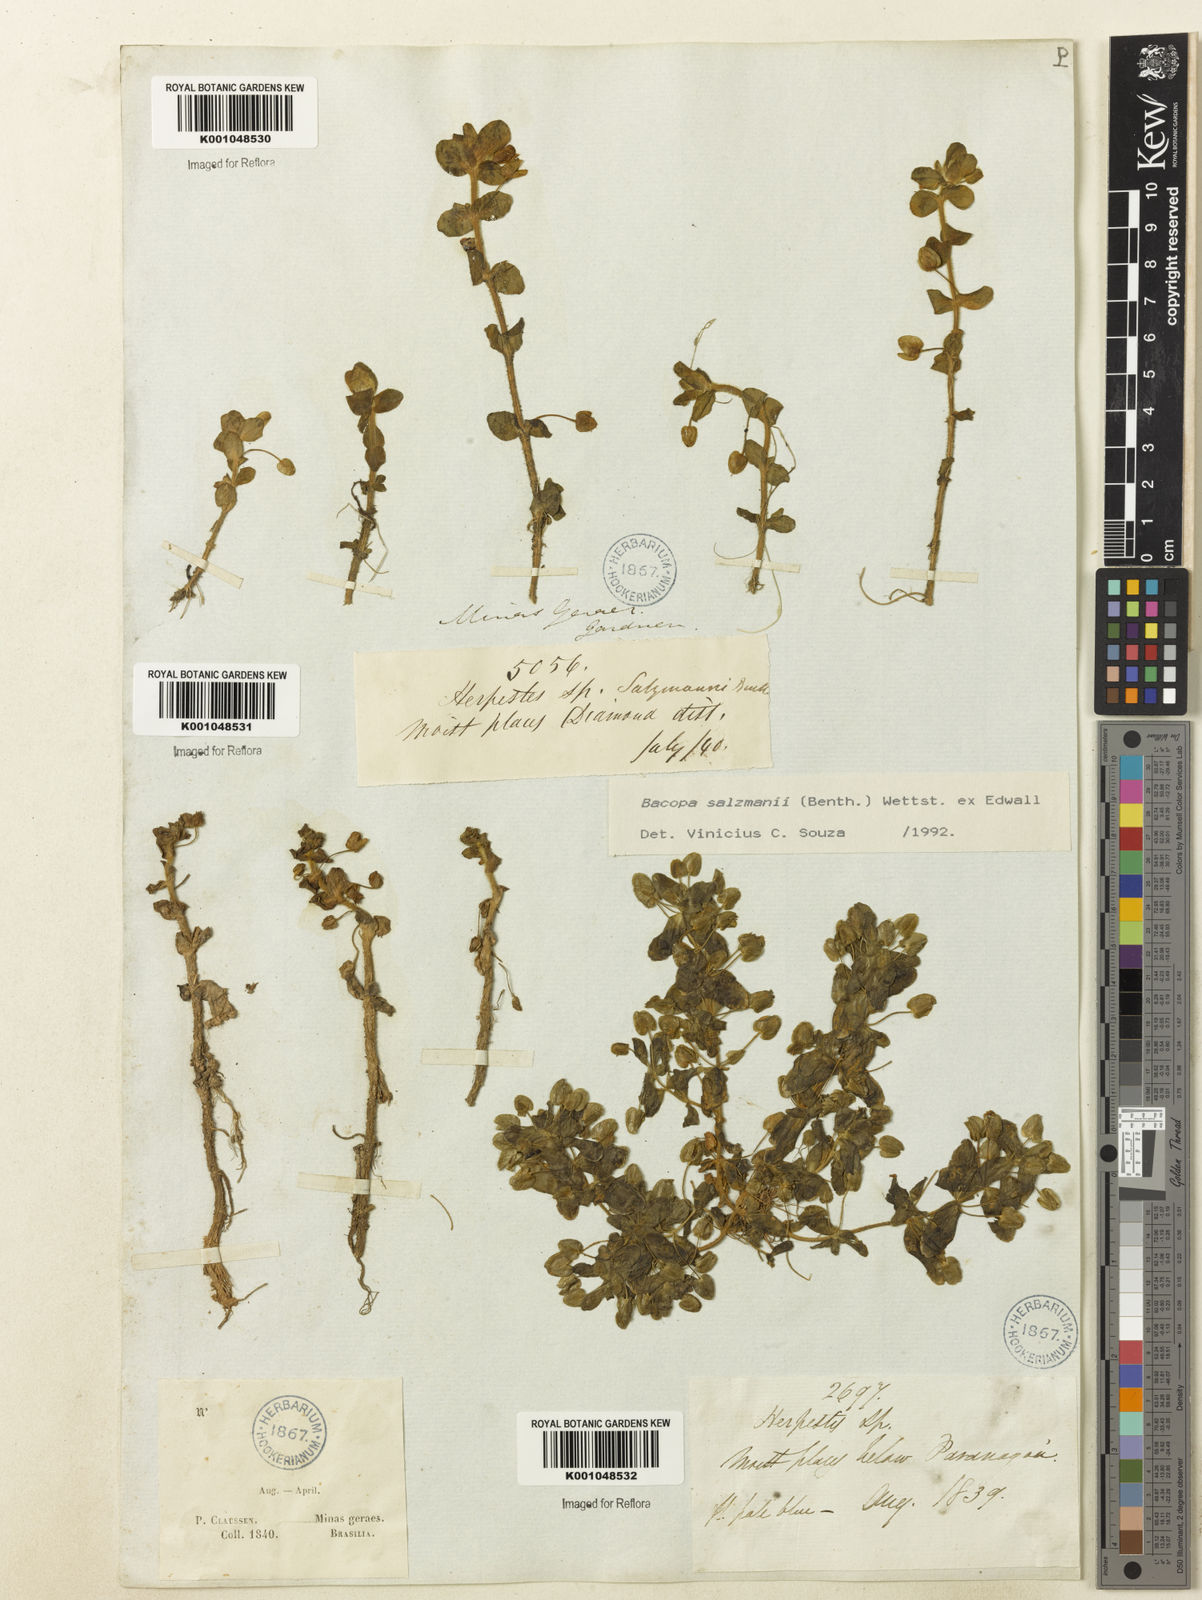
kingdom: Plantae
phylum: Tracheophyta
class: Magnoliopsida
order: Lamiales
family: Plantaginaceae
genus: Bacopa
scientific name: Bacopa salzmannii
